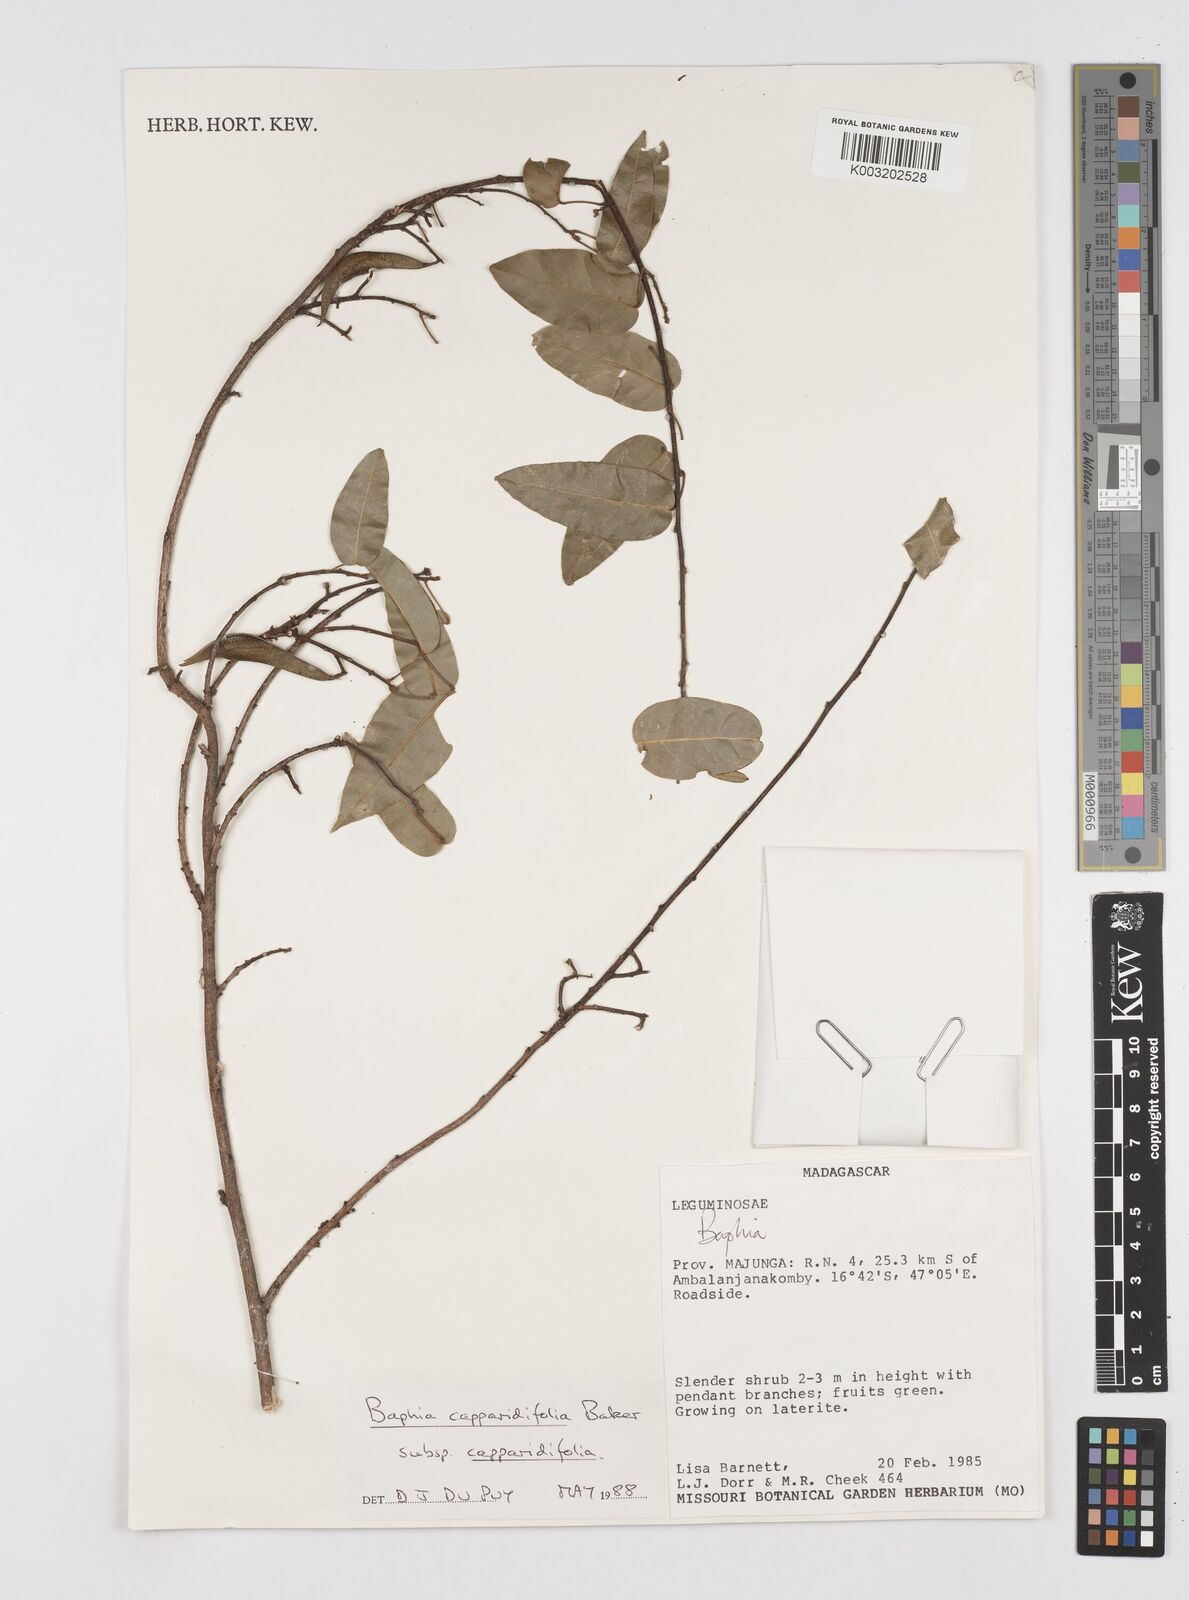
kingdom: Plantae
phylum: Tracheophyta
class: Magnoliopsida
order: Fabales
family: Fabaceae
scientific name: Fabaceae
